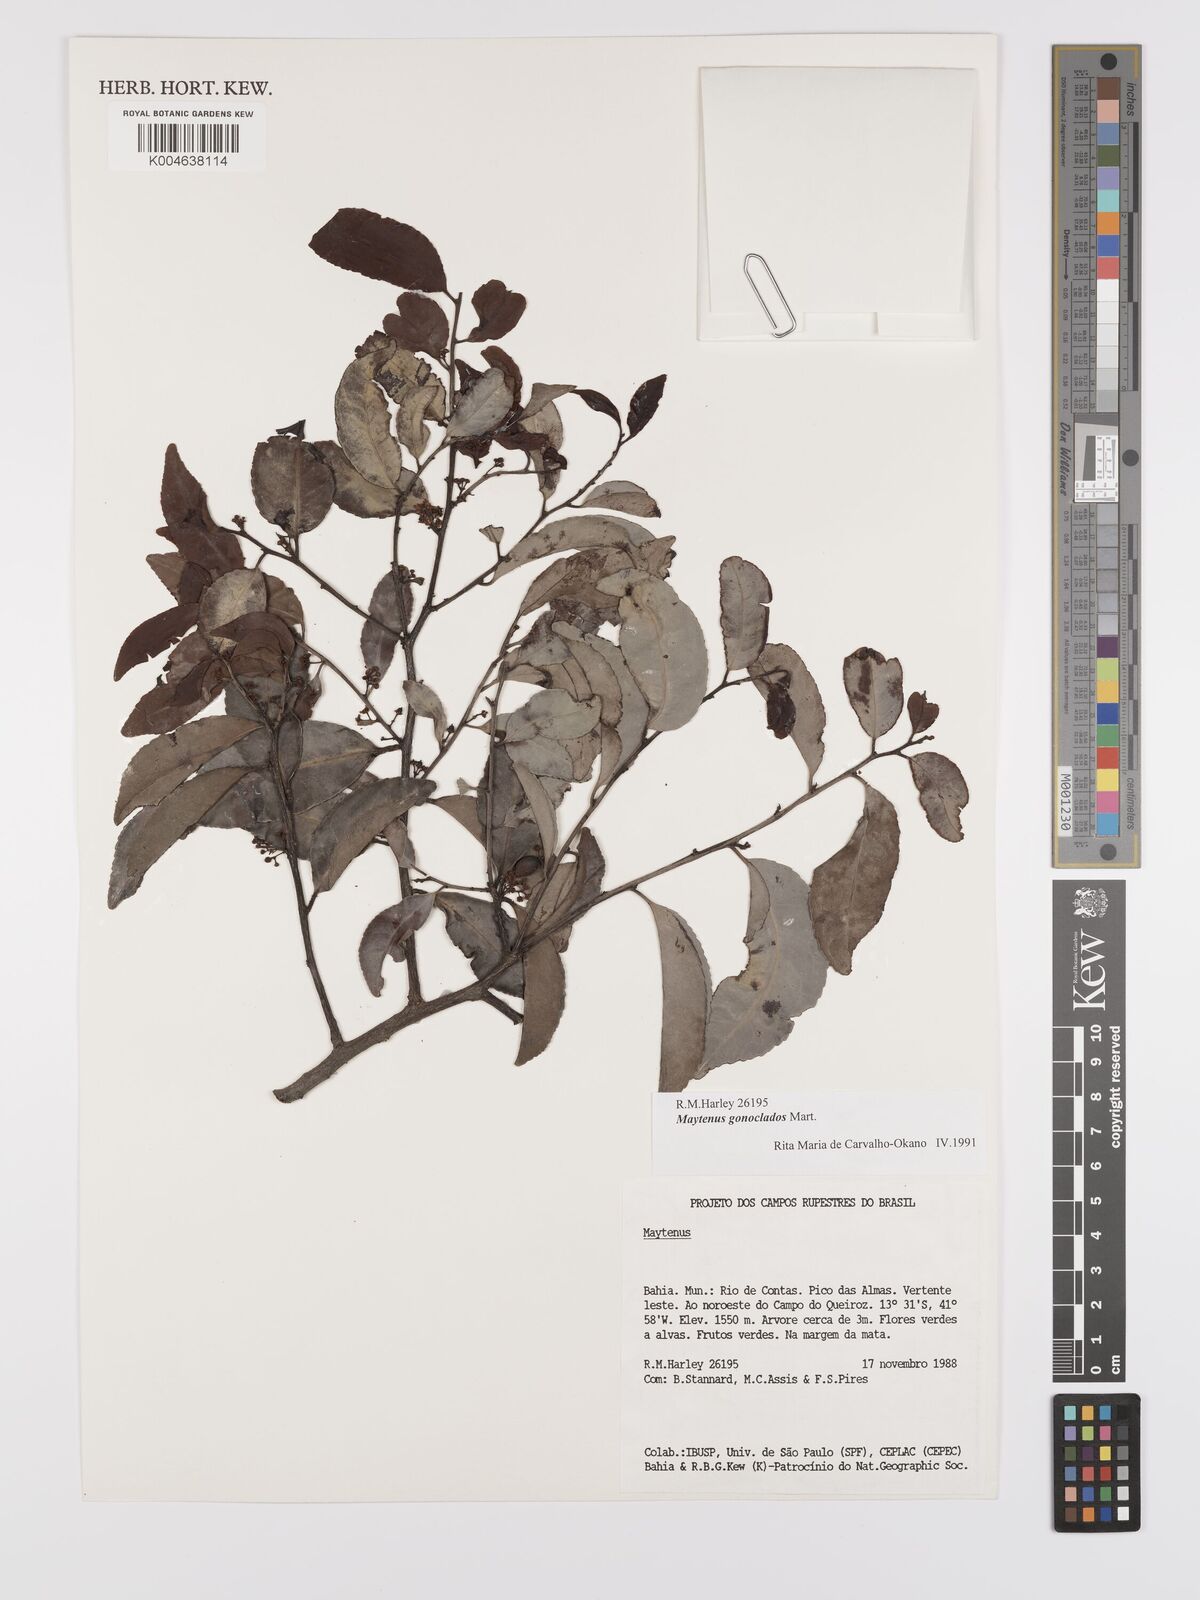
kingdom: Plantae
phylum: Tracheophyta
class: Magnoliopsida
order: Celastrales
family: Celastraceae
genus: Monteverdia
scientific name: Monteverdia gonoclada
